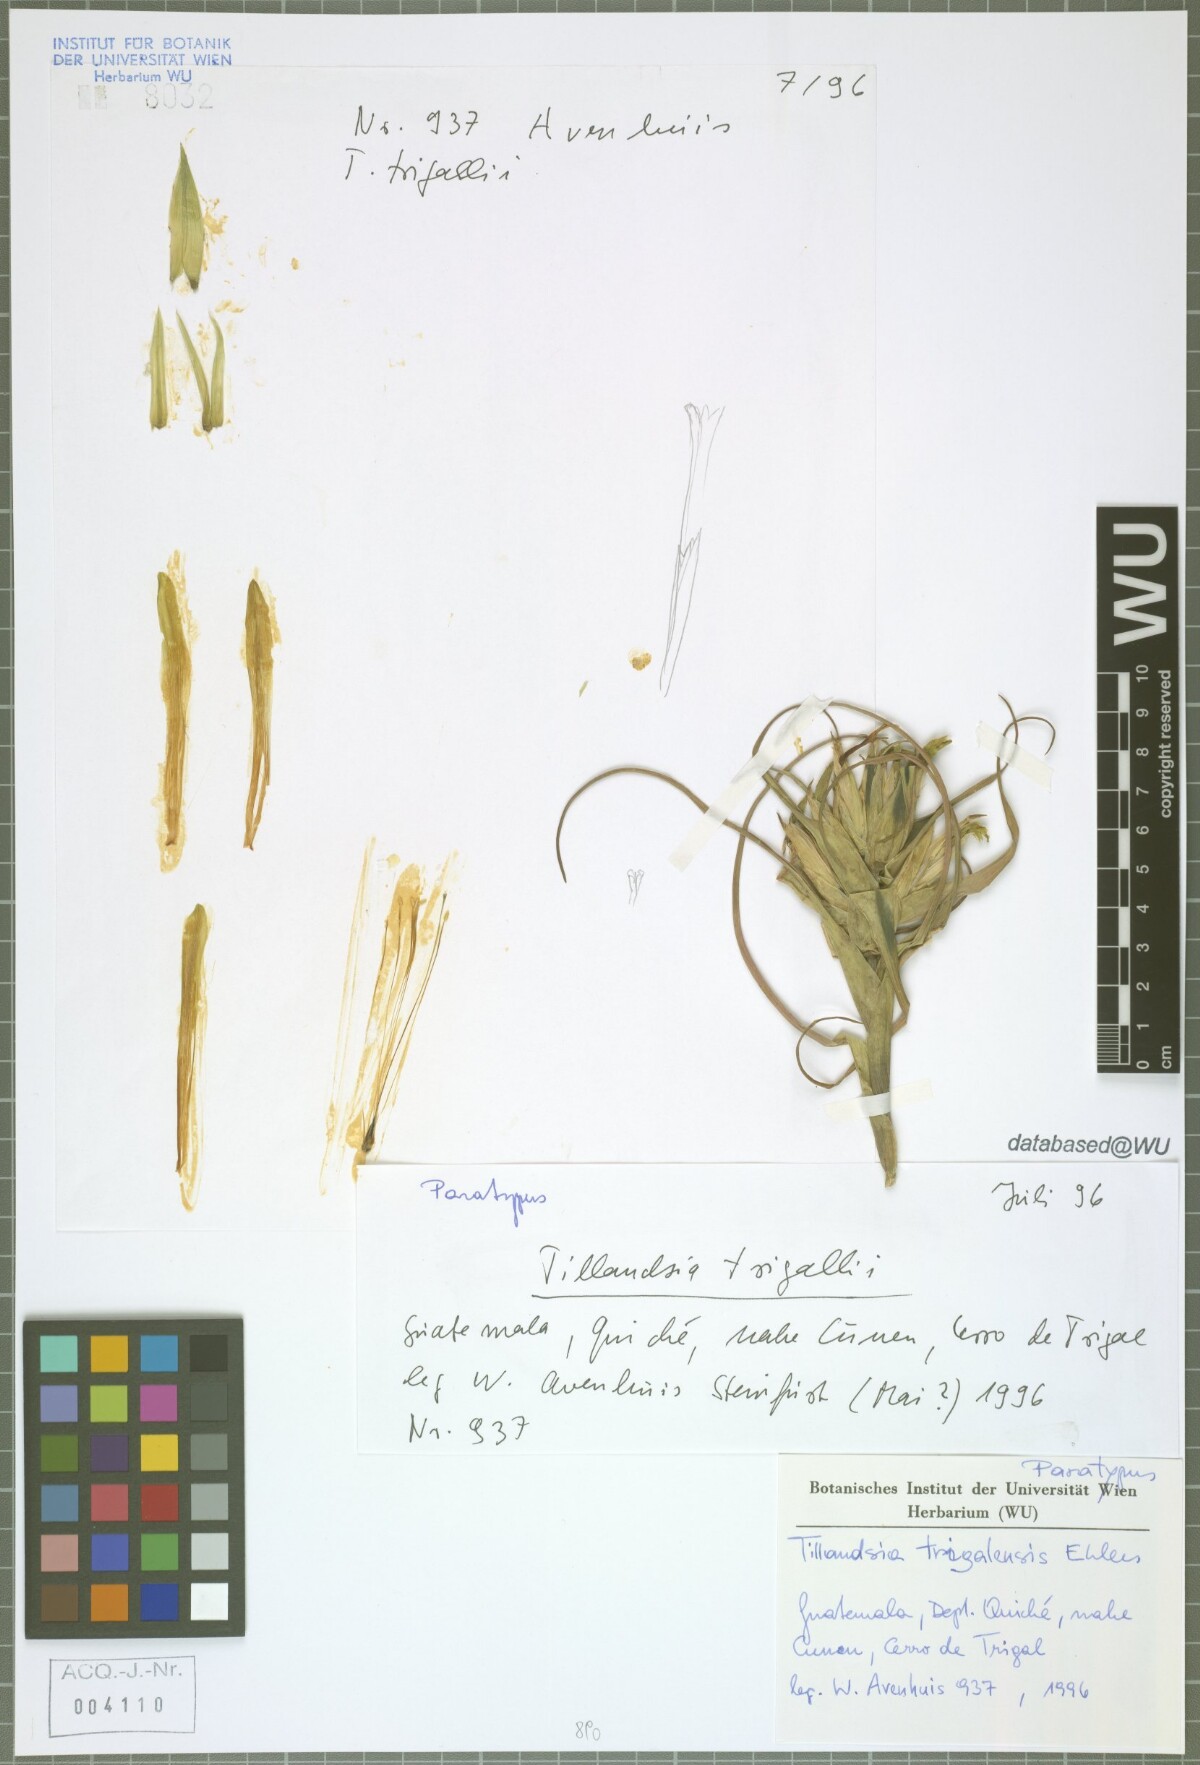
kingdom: Plantae
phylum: Tracheophyta
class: Liliopsida
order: Poales
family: Bromeliaceae
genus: Tillandsia
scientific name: Tillandsia trigalensis
